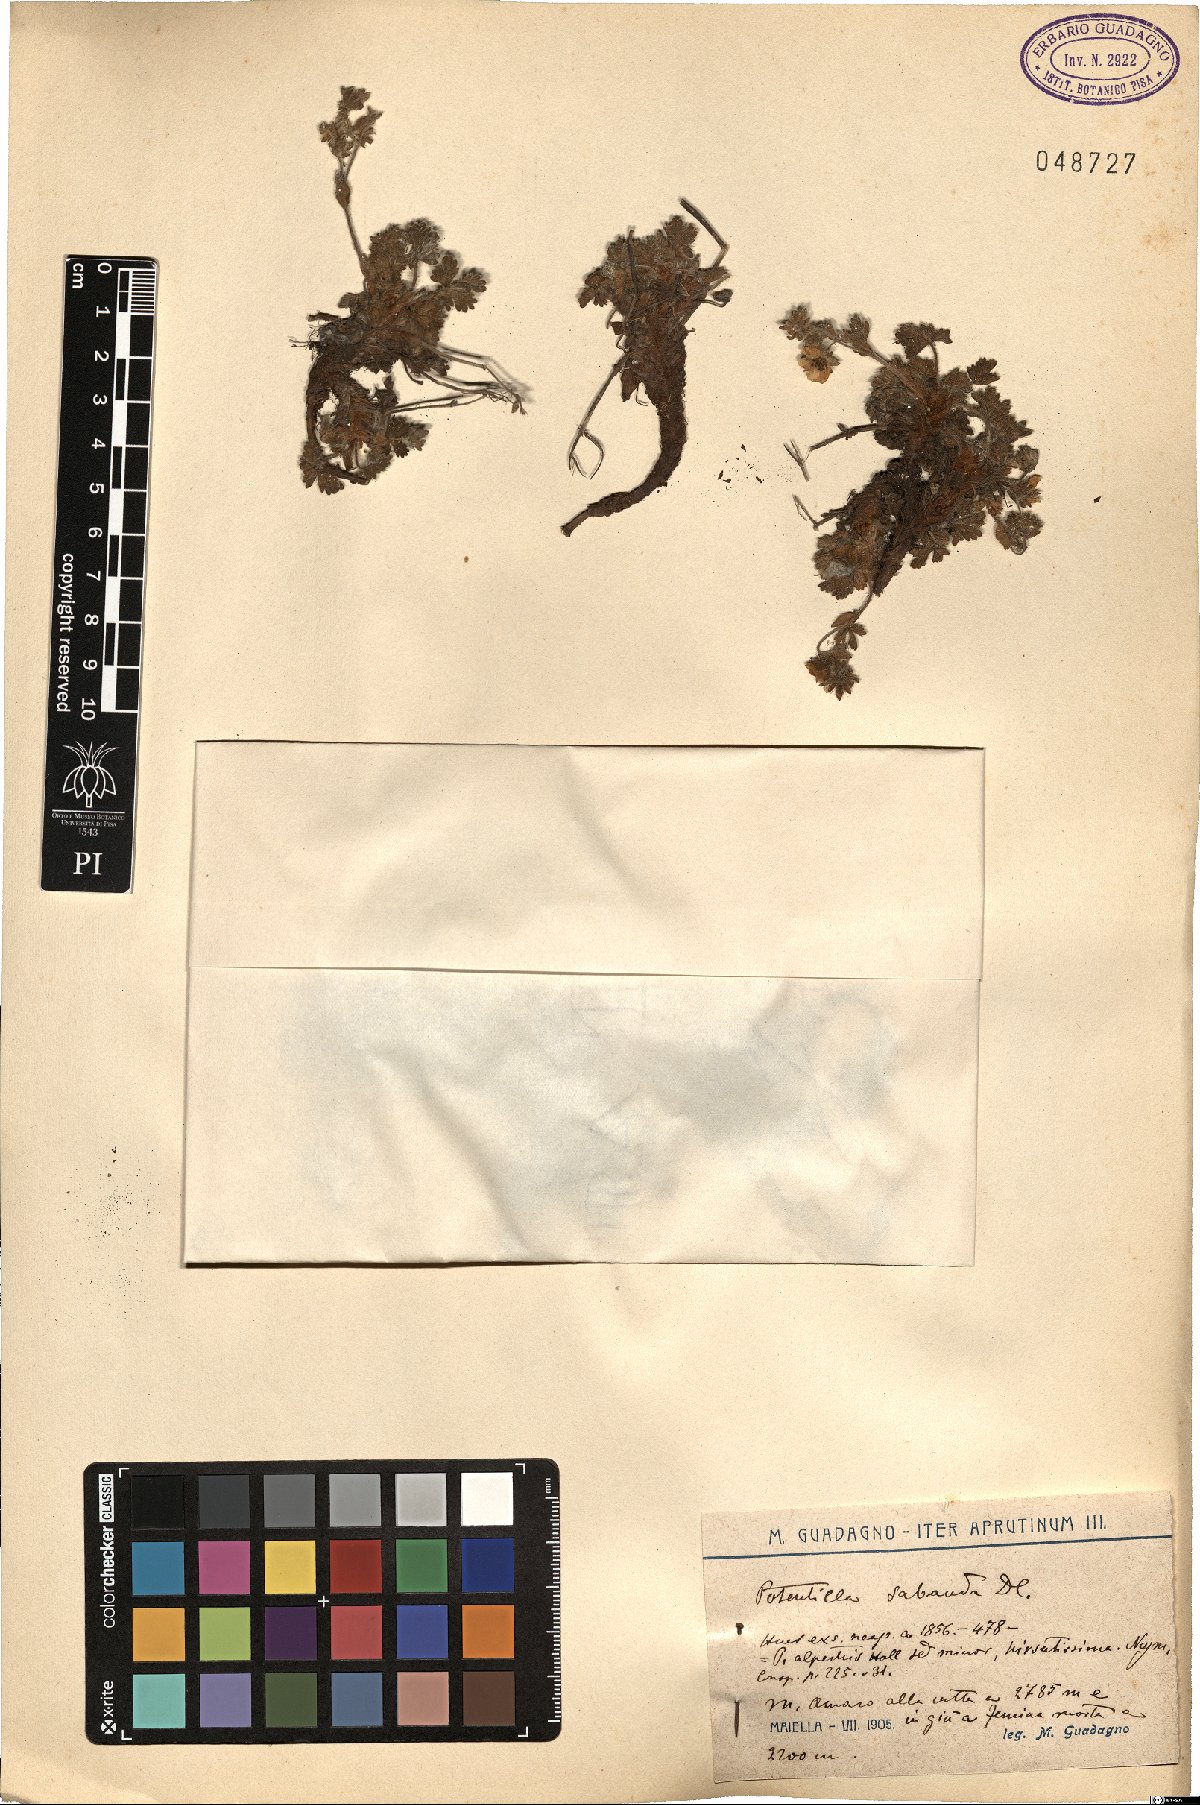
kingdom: Plantae
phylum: Tracheophyta
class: Magnoliopsida
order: Rosales
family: Rosaceae
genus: Potentilla
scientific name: Potentilla crantzii
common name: Alpine cinquefoil
